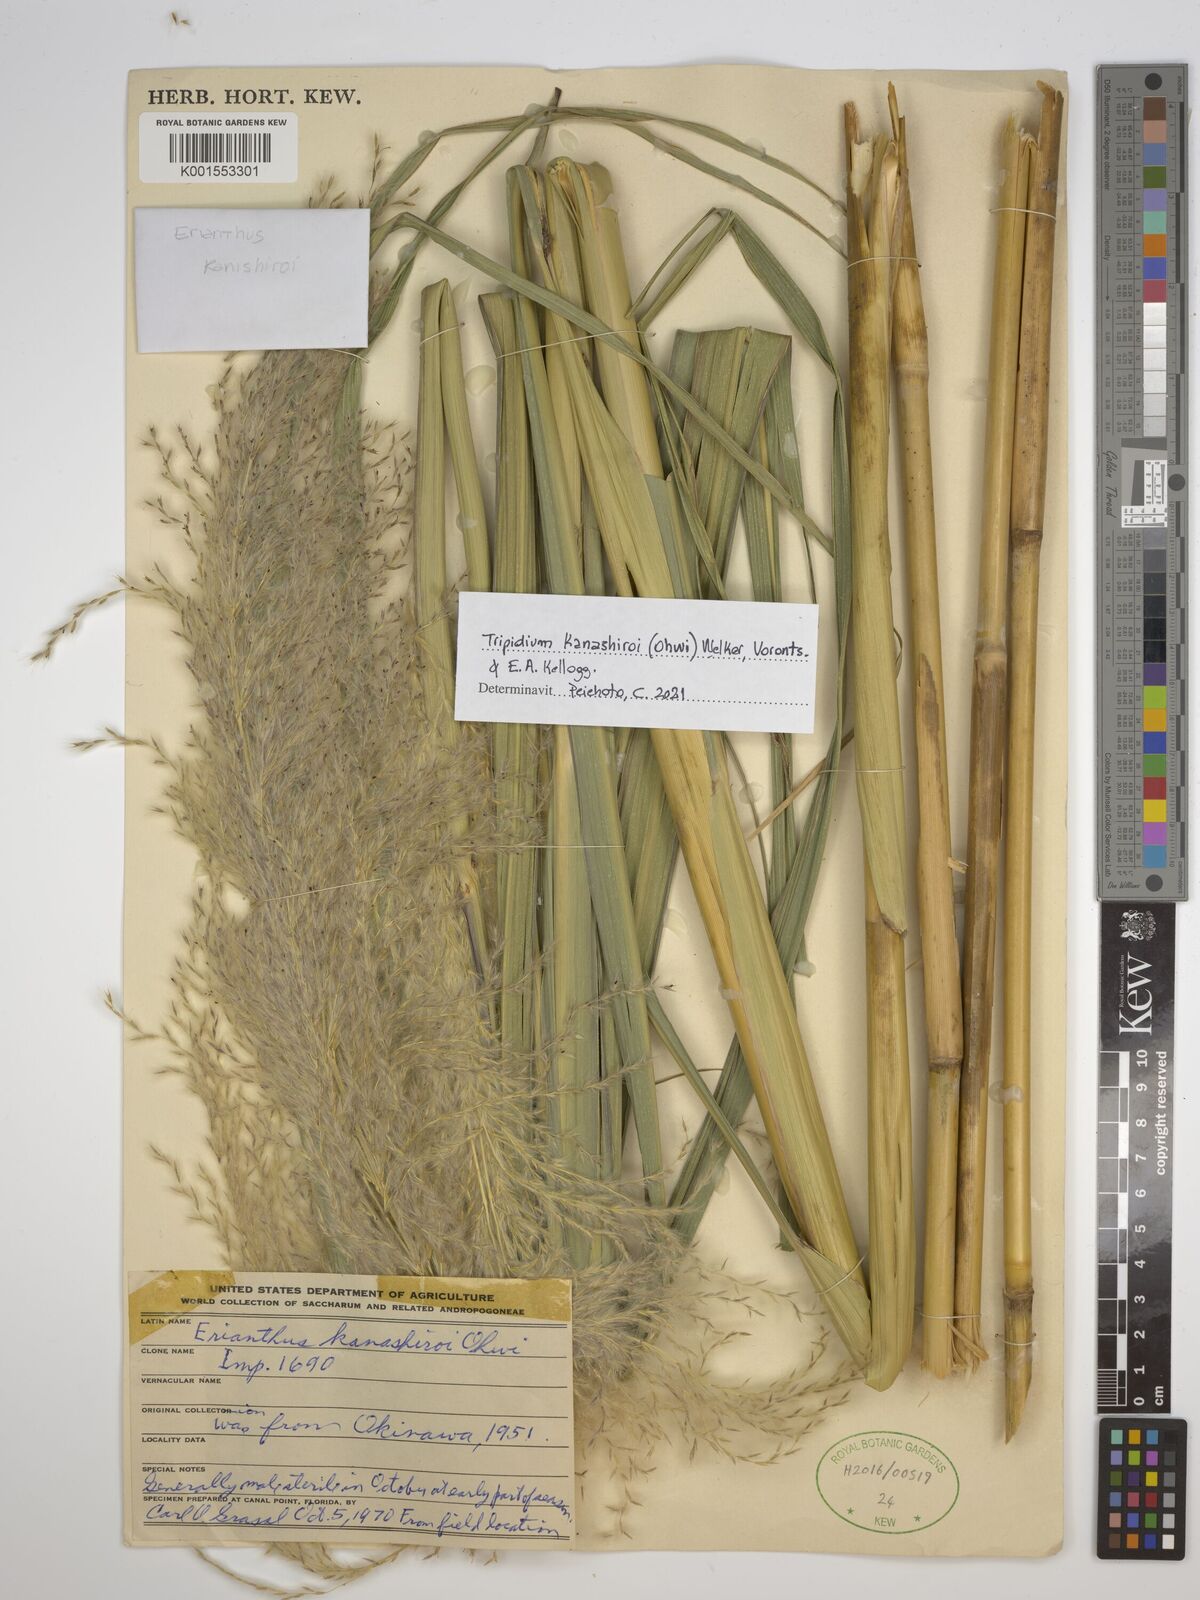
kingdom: Plantae
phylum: Tracheophyta
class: Liliopsida
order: Poales
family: Poaceae
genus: Tripidium
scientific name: Tripidium kanashiroi
